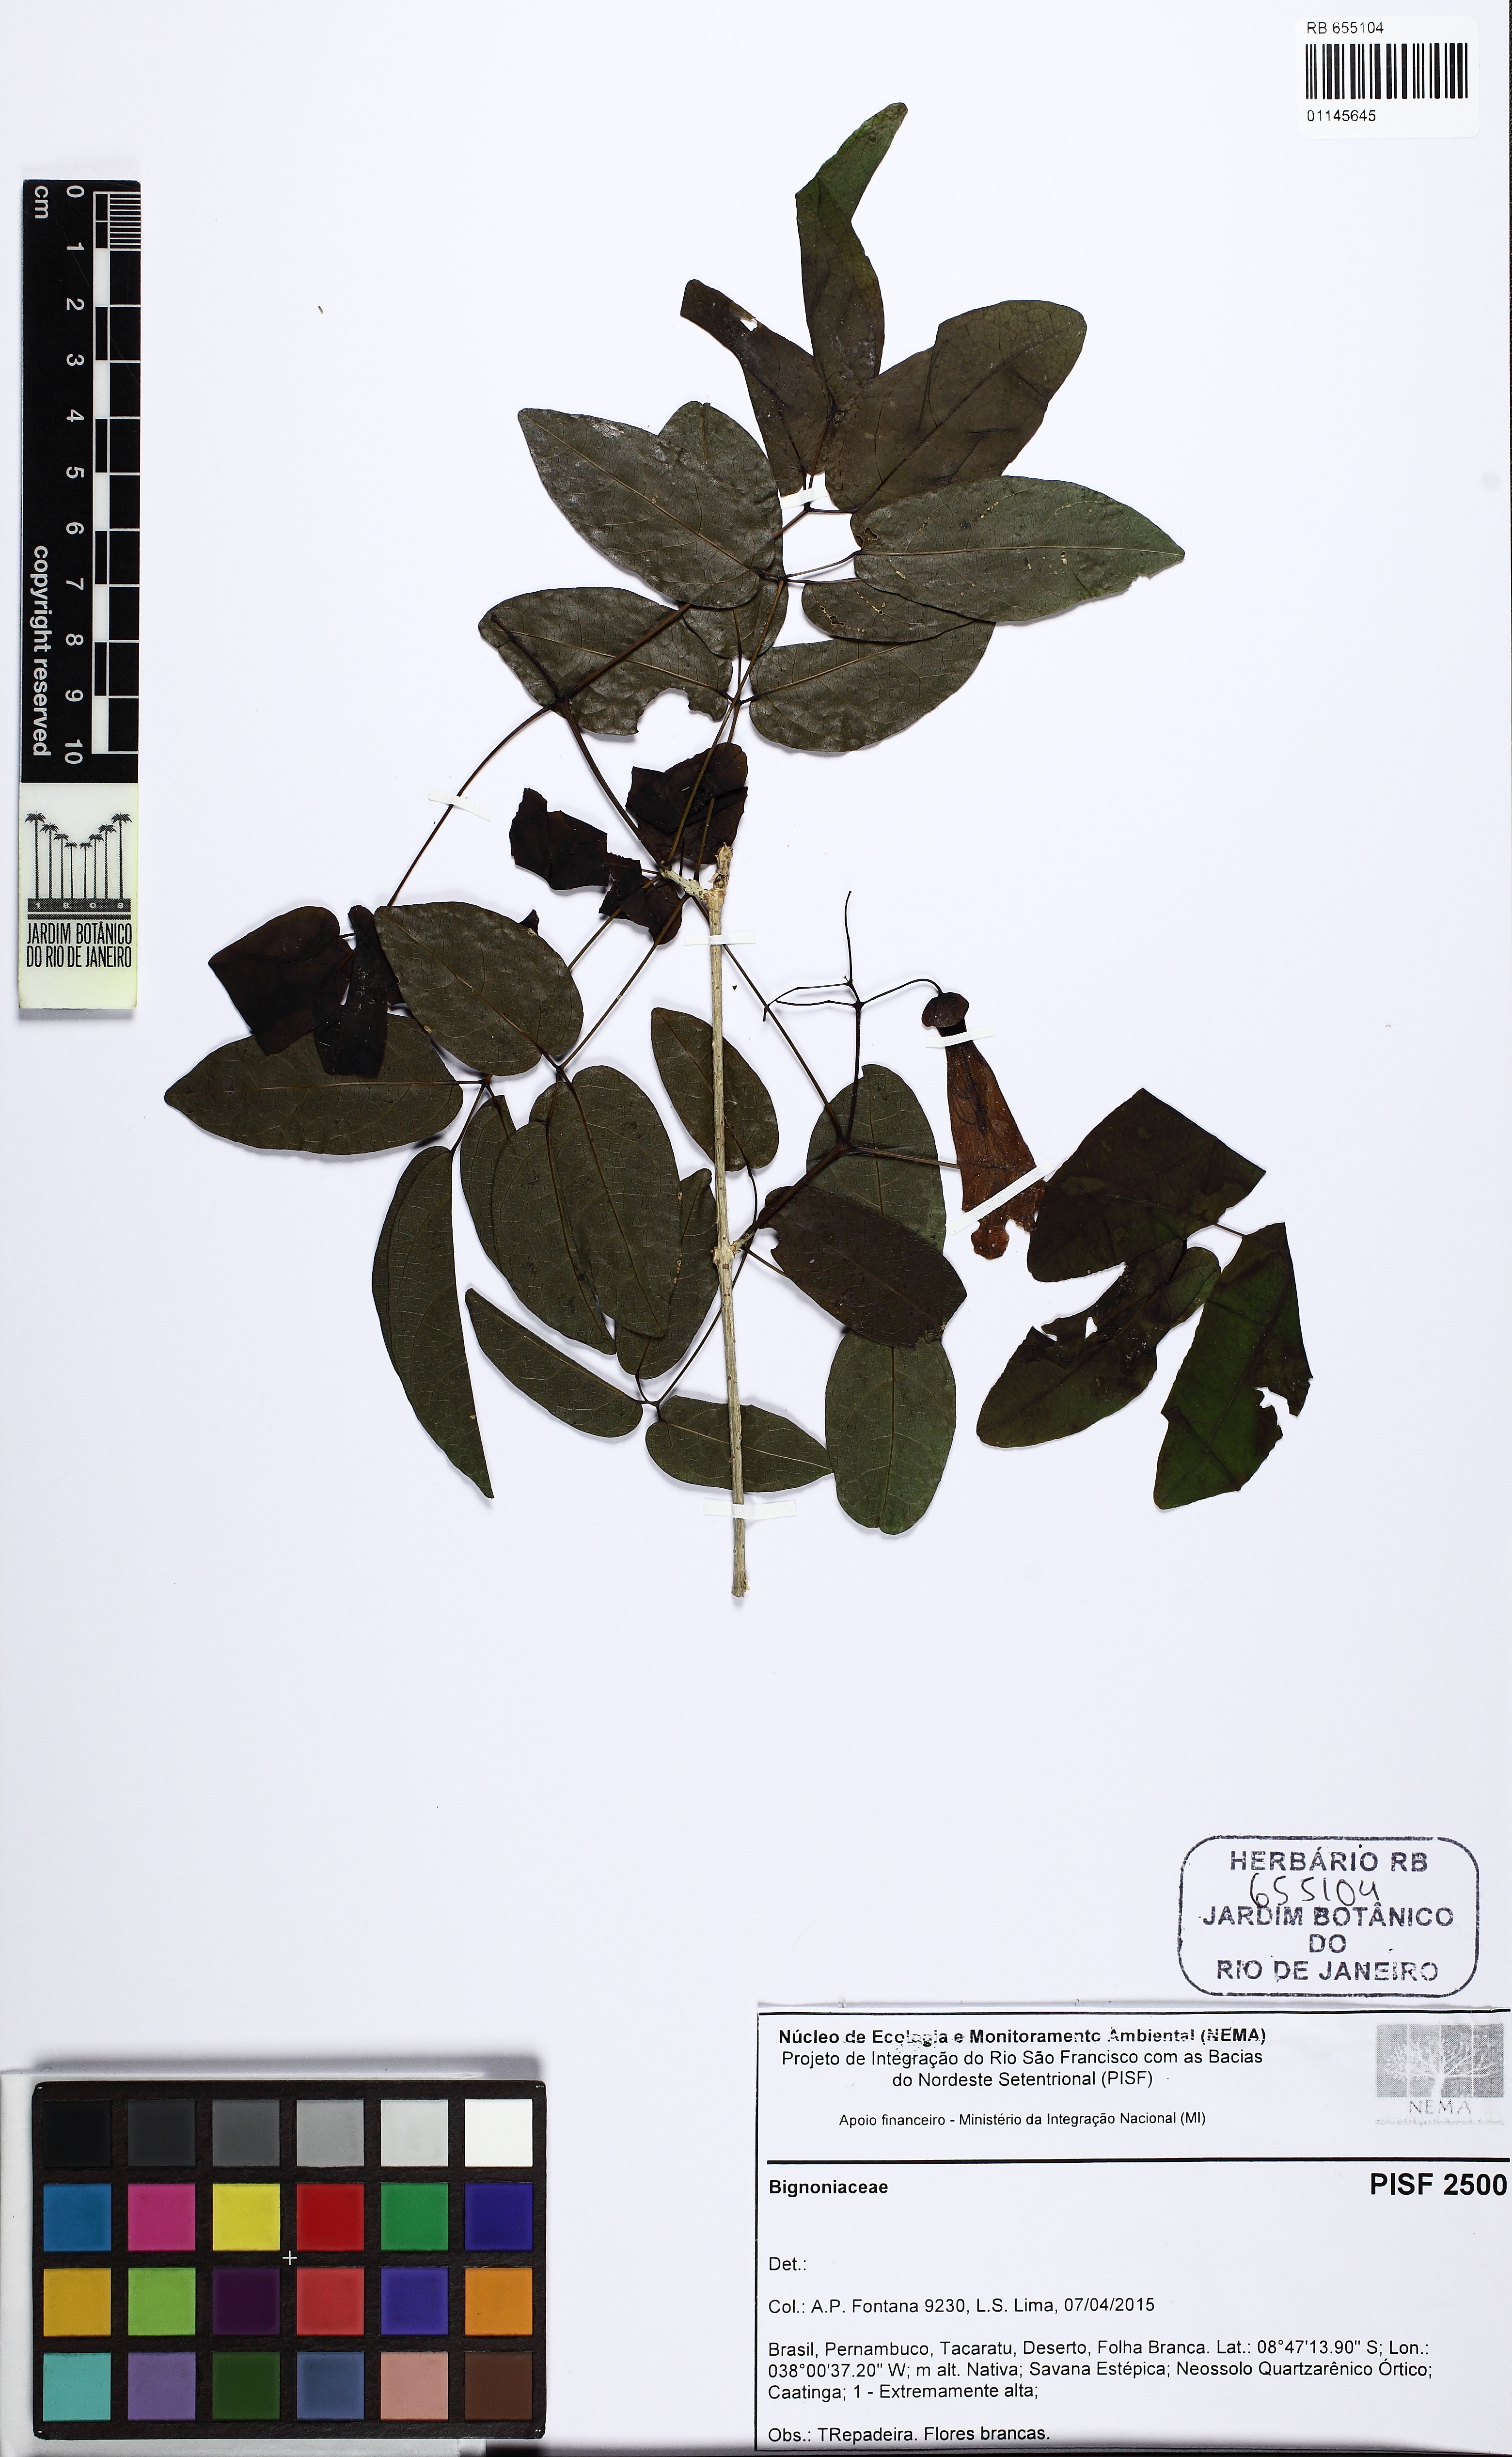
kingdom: Plantae
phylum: Tracheophyta
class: Magnoliopsida
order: Lamiales
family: Bignoniaceae
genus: Anemopaegma
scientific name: Anemopaegma
